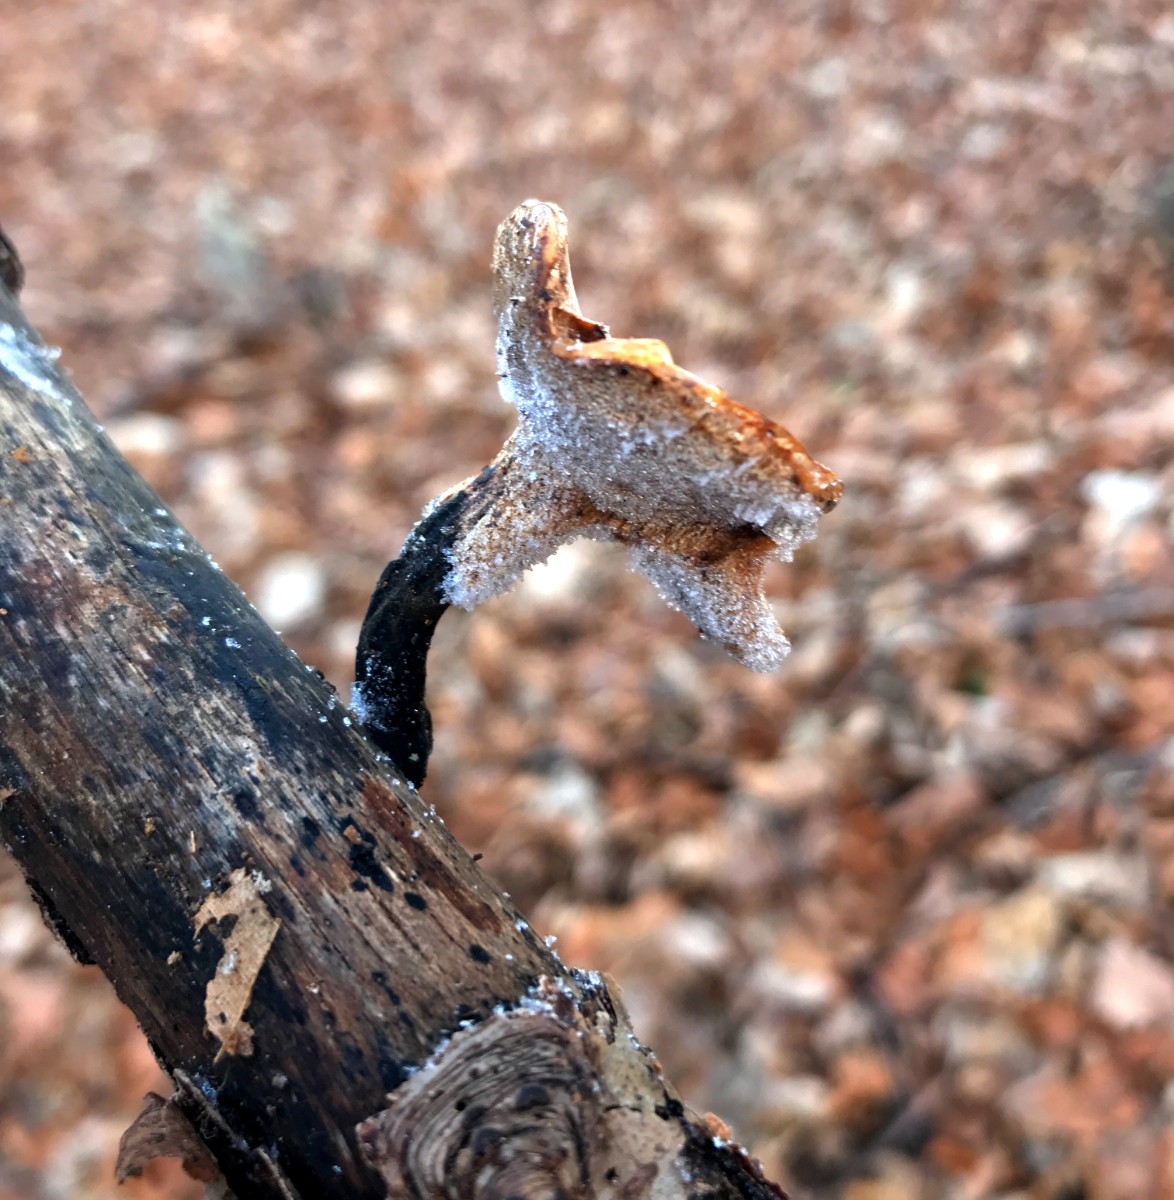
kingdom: Fungi
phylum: Basidiomycota
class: Agaricomycetes
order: Polyporales
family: Polyporaceae
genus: Cerioporus
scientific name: Cerioporus varius
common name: foranderlig stilkporesvamp
